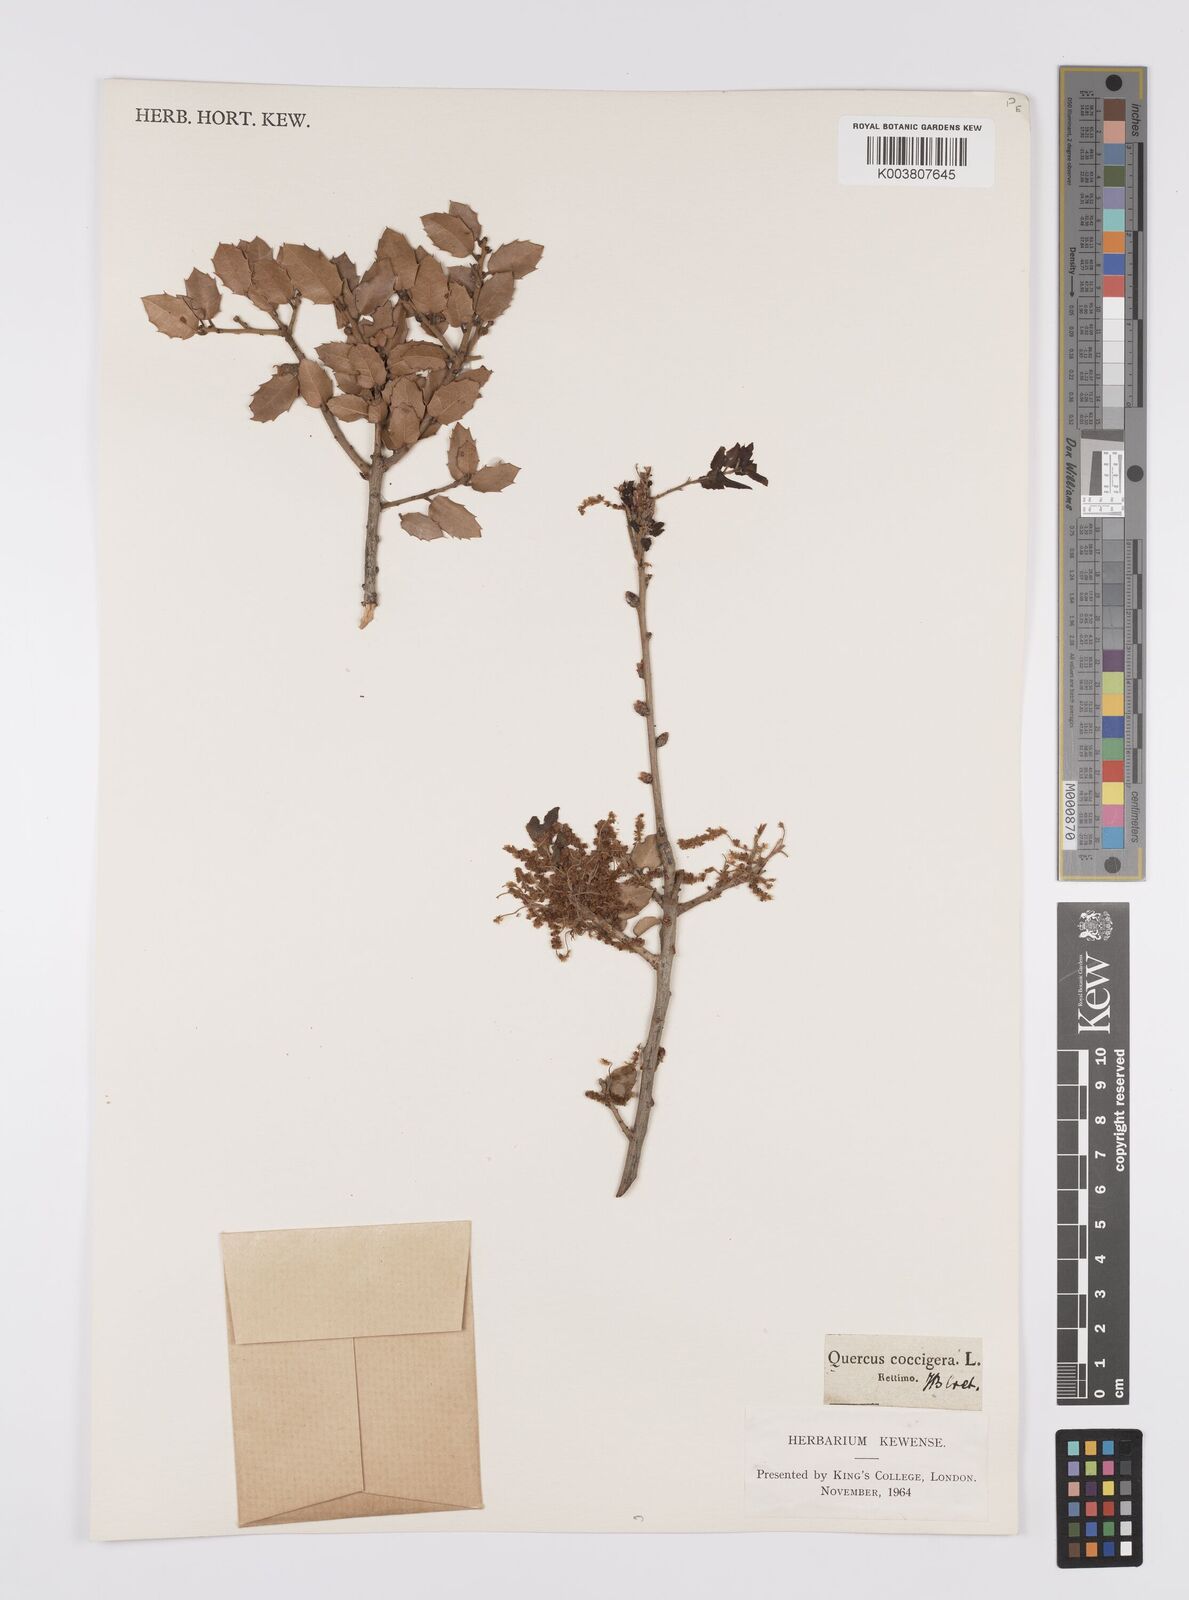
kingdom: Plantae
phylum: Tracheophyta
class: Magnoliopsida
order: Fagales
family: Fagaceae
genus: Quercus
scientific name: Quercus coccifera
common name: Kermes oak
